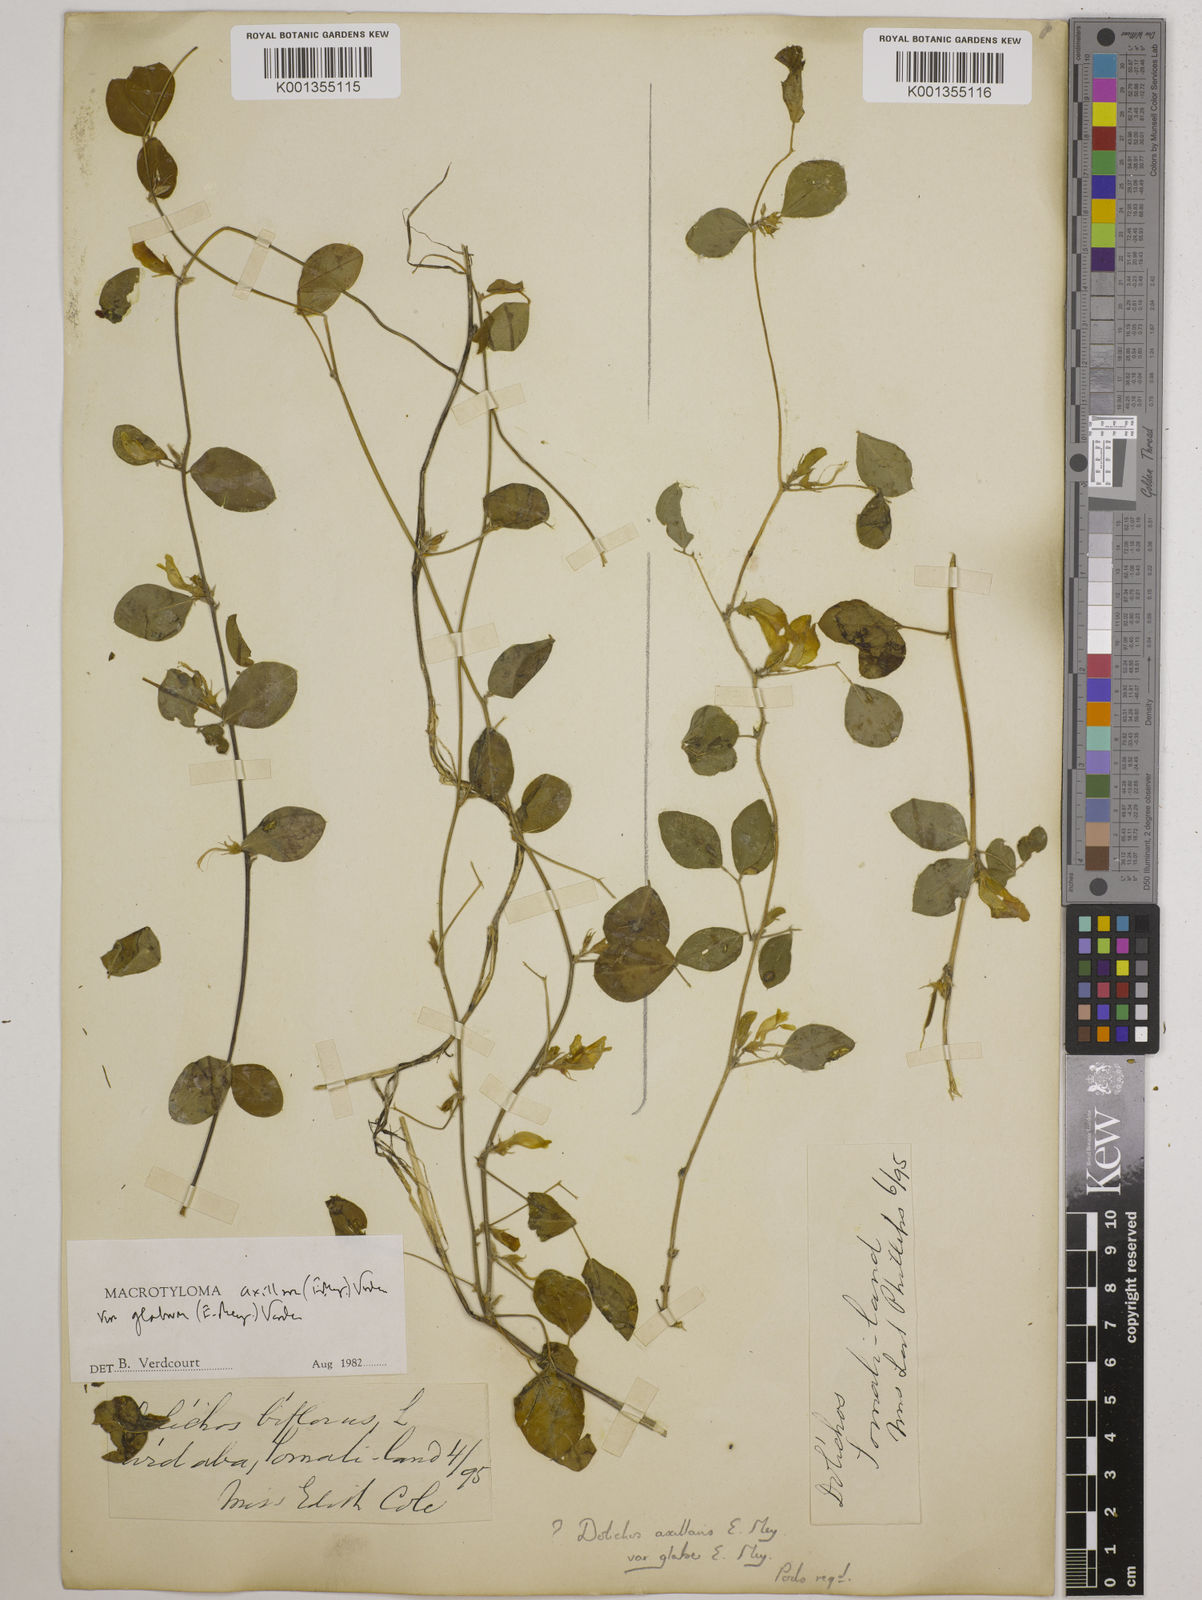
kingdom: Plantae
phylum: Tracheophyta
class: Magnoliopsida
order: Fabales
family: Fabaceae
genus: Macrotyloma
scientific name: Macrotyloma
